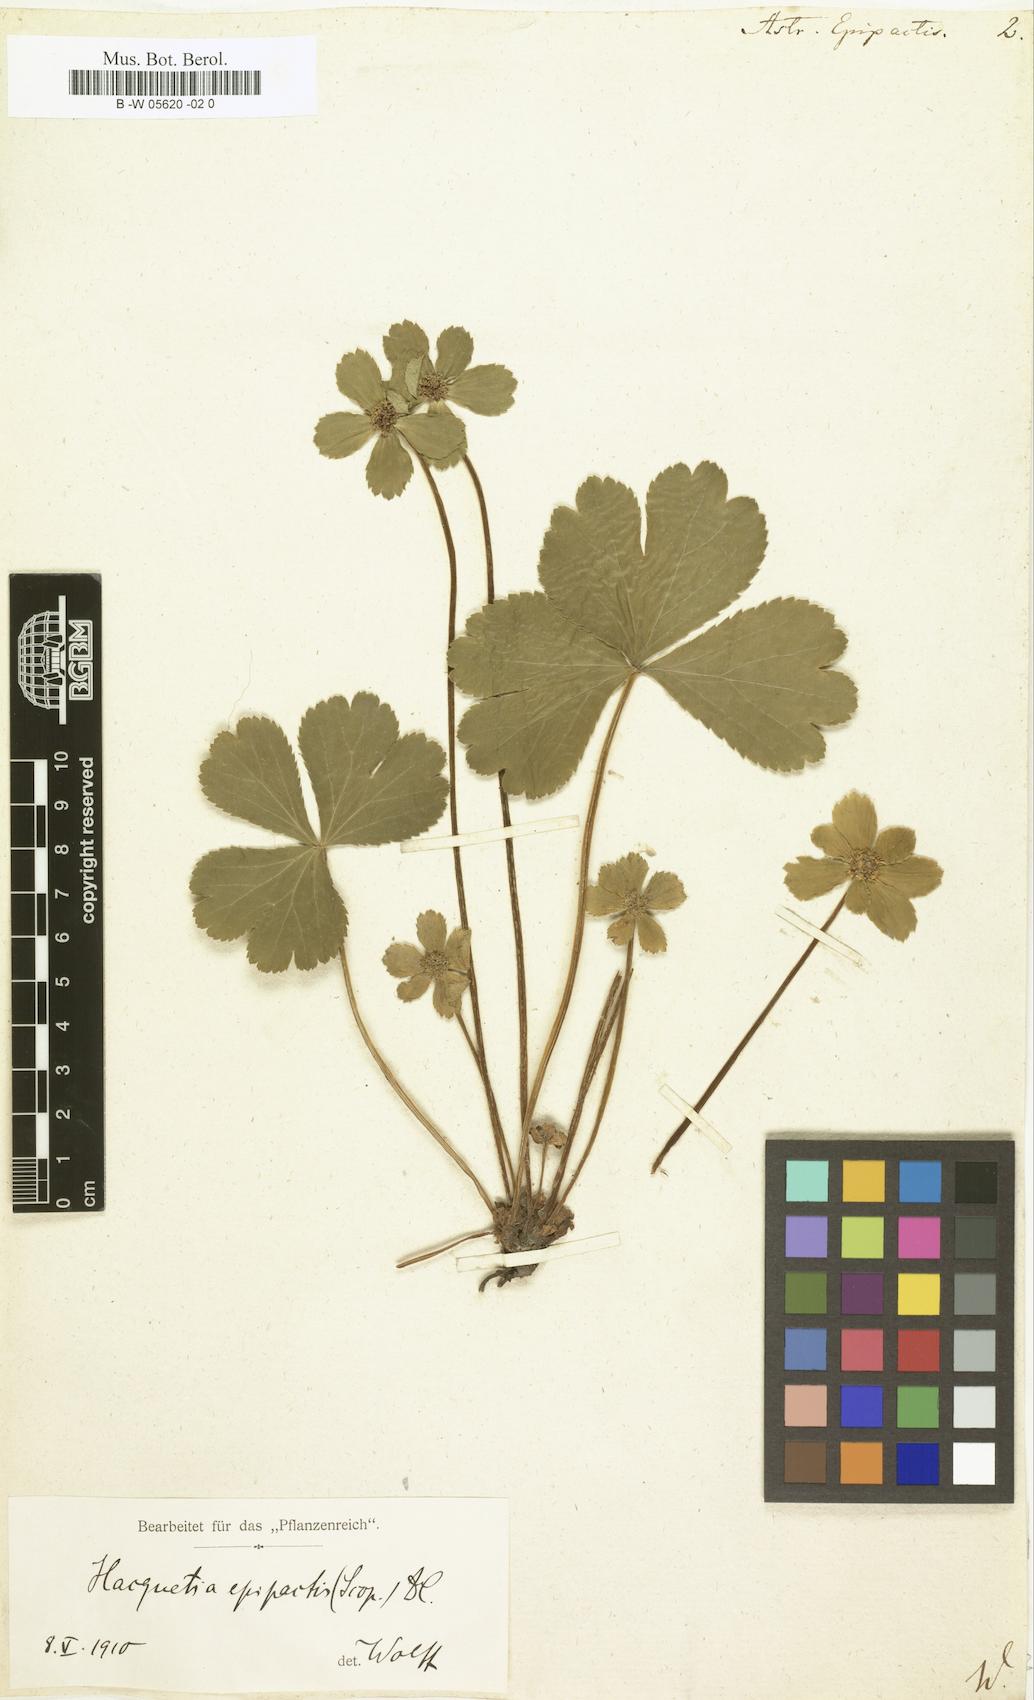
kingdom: Plantae
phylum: Tracheophyta
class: Magnoliopsida
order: Apiales
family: Apiaceae
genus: Sanicula
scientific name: Sanicula epipactis
